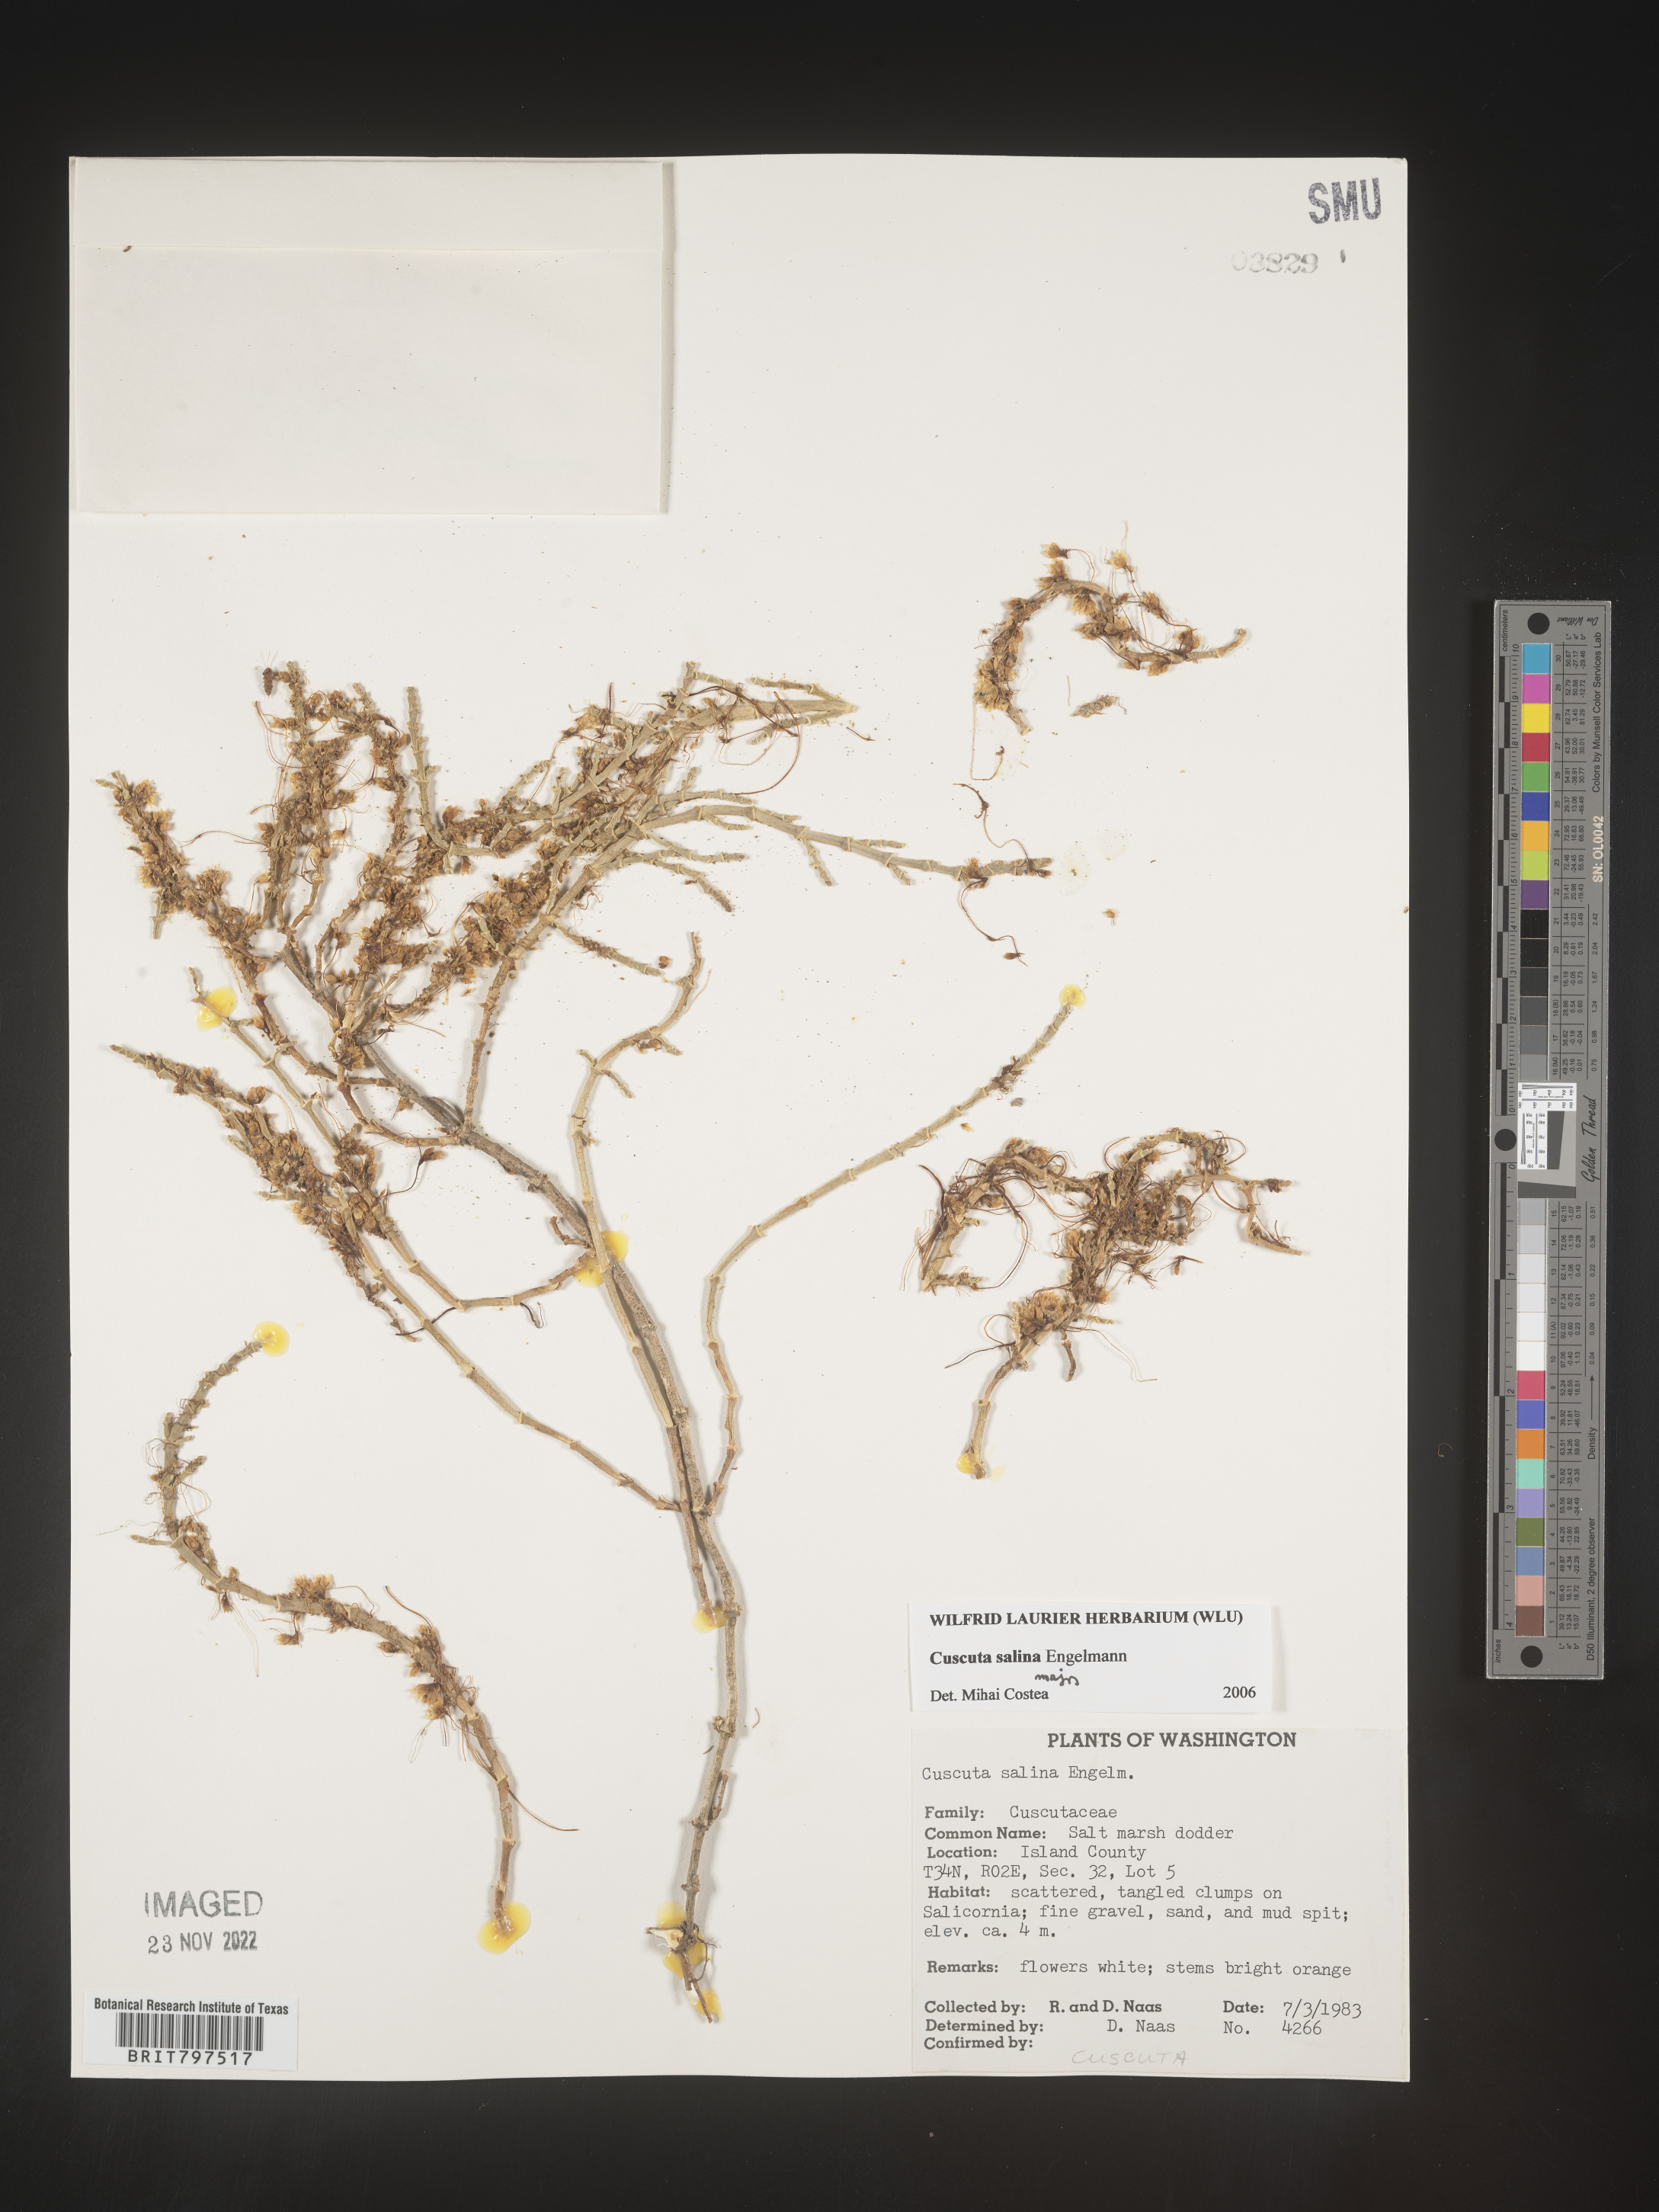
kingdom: Plantae
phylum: Tracheophyta
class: Magnoliopsida
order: Solanales
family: Convolvulaceae
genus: Cuscuta
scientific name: Cuscuta salina
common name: Goldenthread
